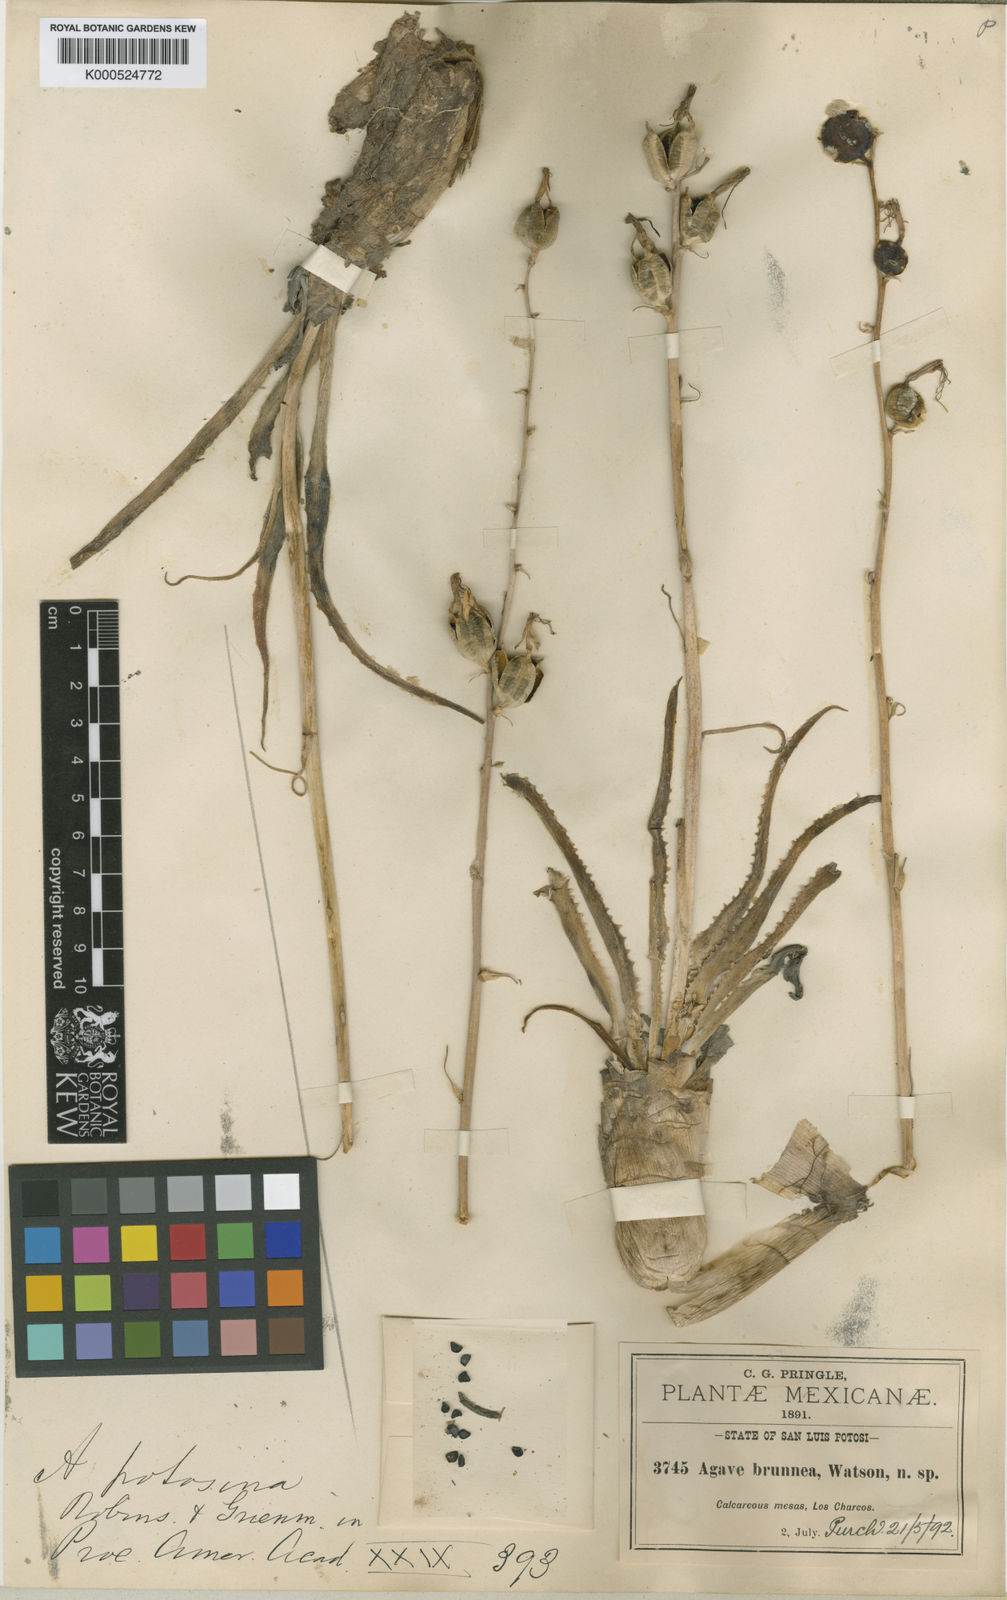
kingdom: Plantae
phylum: Tracheophyta
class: Liliopsida
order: Asparagales
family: Asparagaceae
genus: Agave
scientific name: Agave potosina
